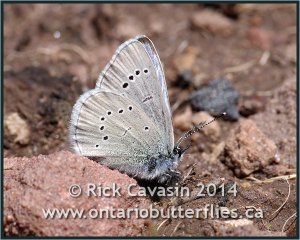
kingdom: Animalia
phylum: Arthropoda
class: Insecta
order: Lepidoptera
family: Lycaenidae
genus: Glaucopsyche
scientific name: Glaucopsyche lygdamus
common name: Silvery Blue
